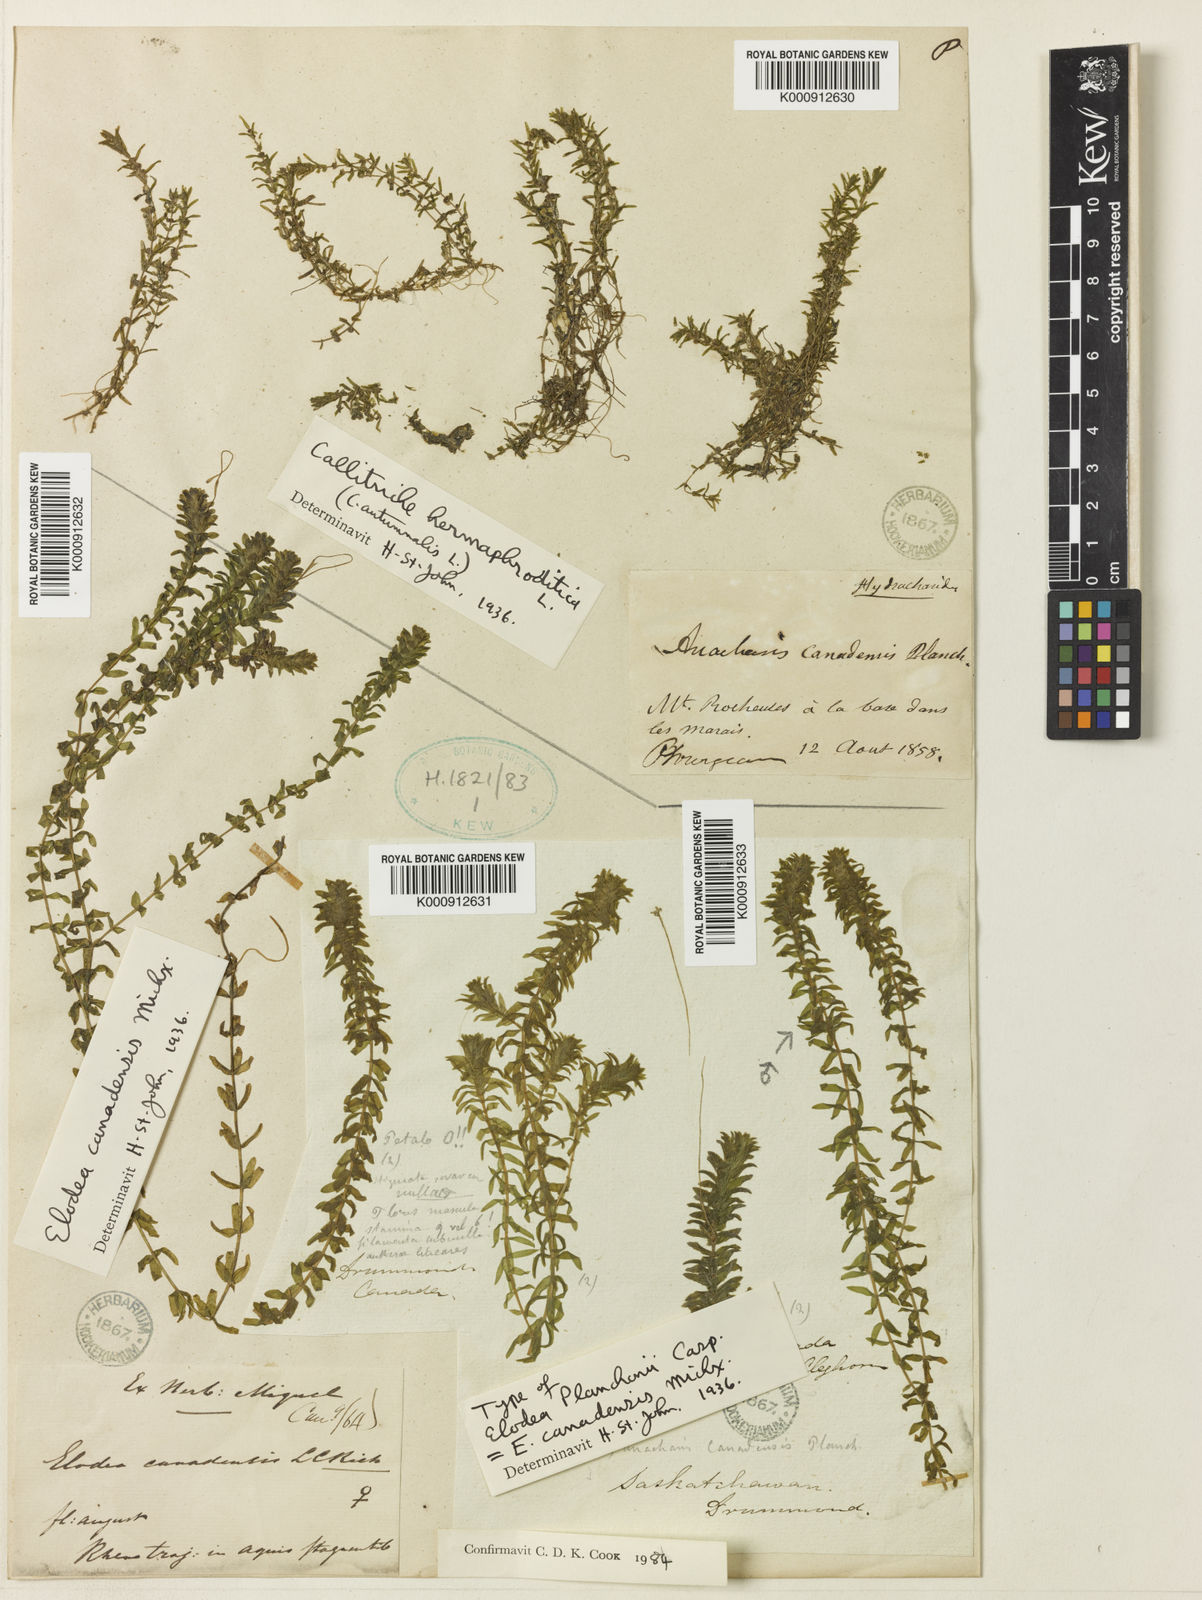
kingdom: Plantae
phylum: Tracheophyta
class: Liliopsida
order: Alismatales
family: Hydrocharitaceae
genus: Elodea
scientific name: Elodea canadensis
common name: Canadian waterweed
